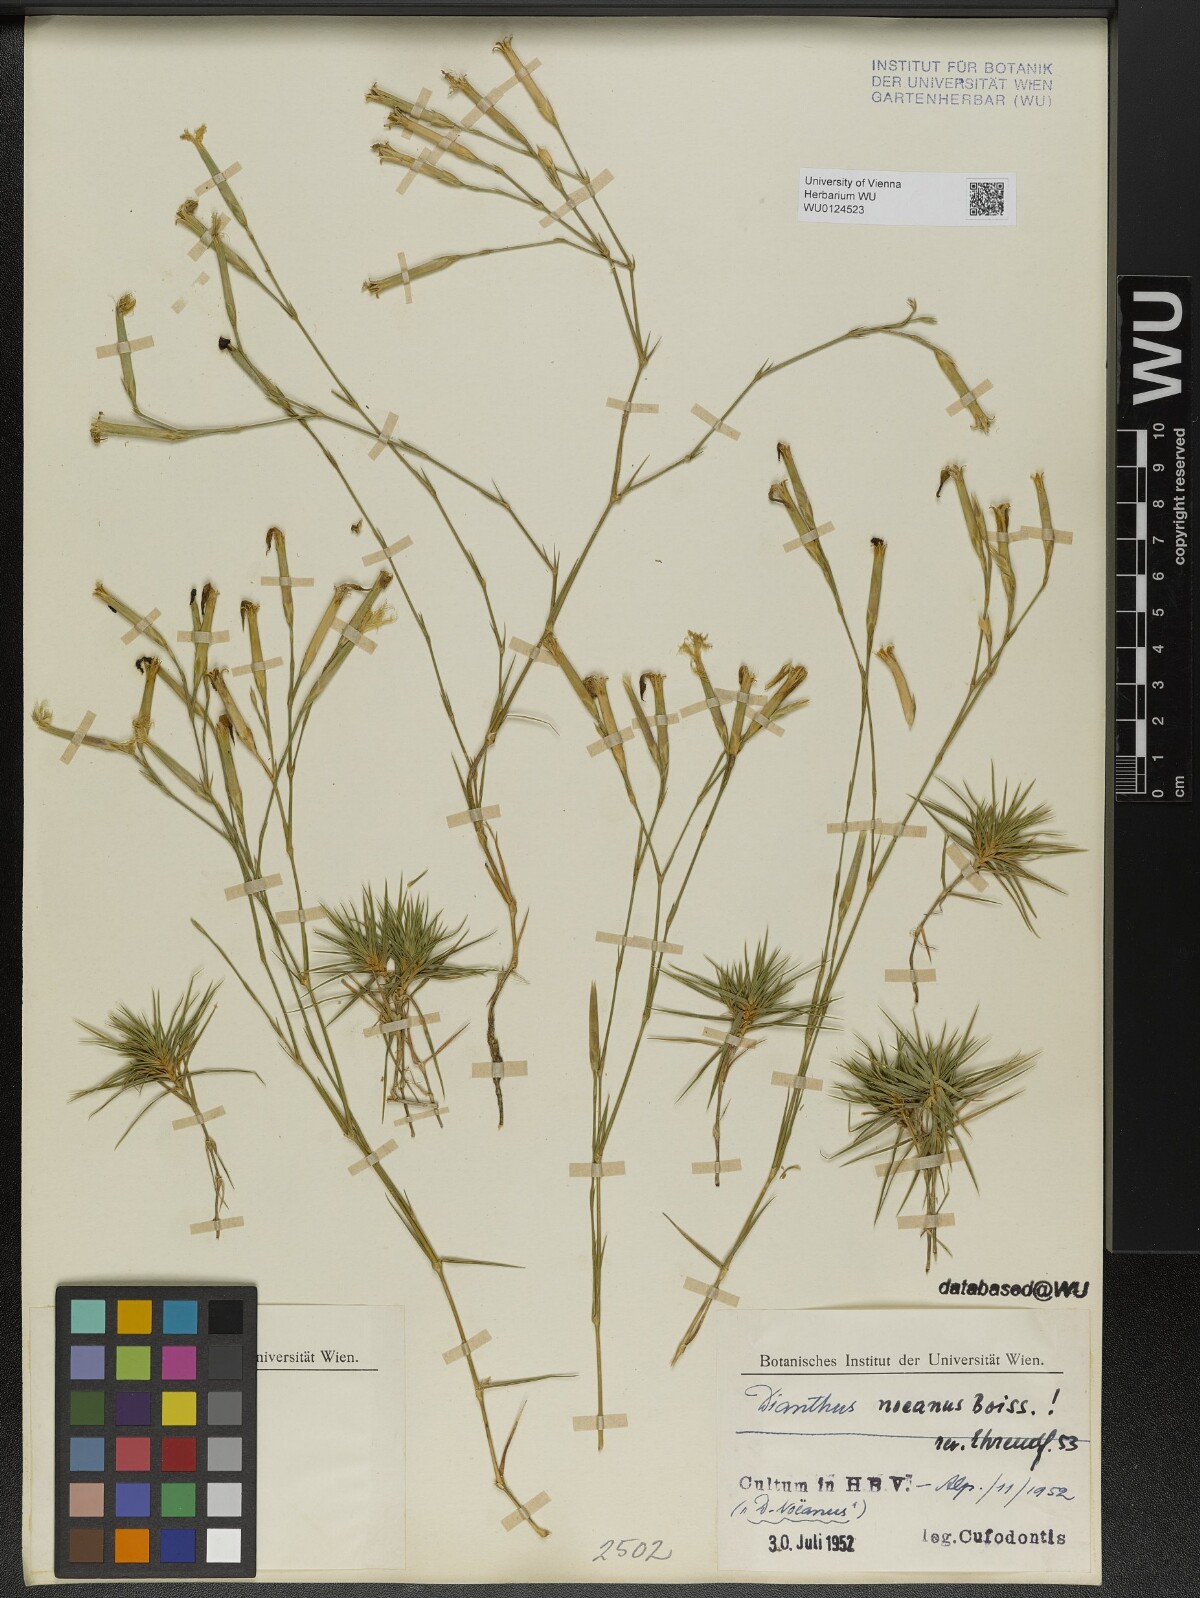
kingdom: Plantae
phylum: Tracheophyta
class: Magnoliopsida
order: Caryophyllales
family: Caryophyllaceae
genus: Dianthus
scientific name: Dianthus noeanus
